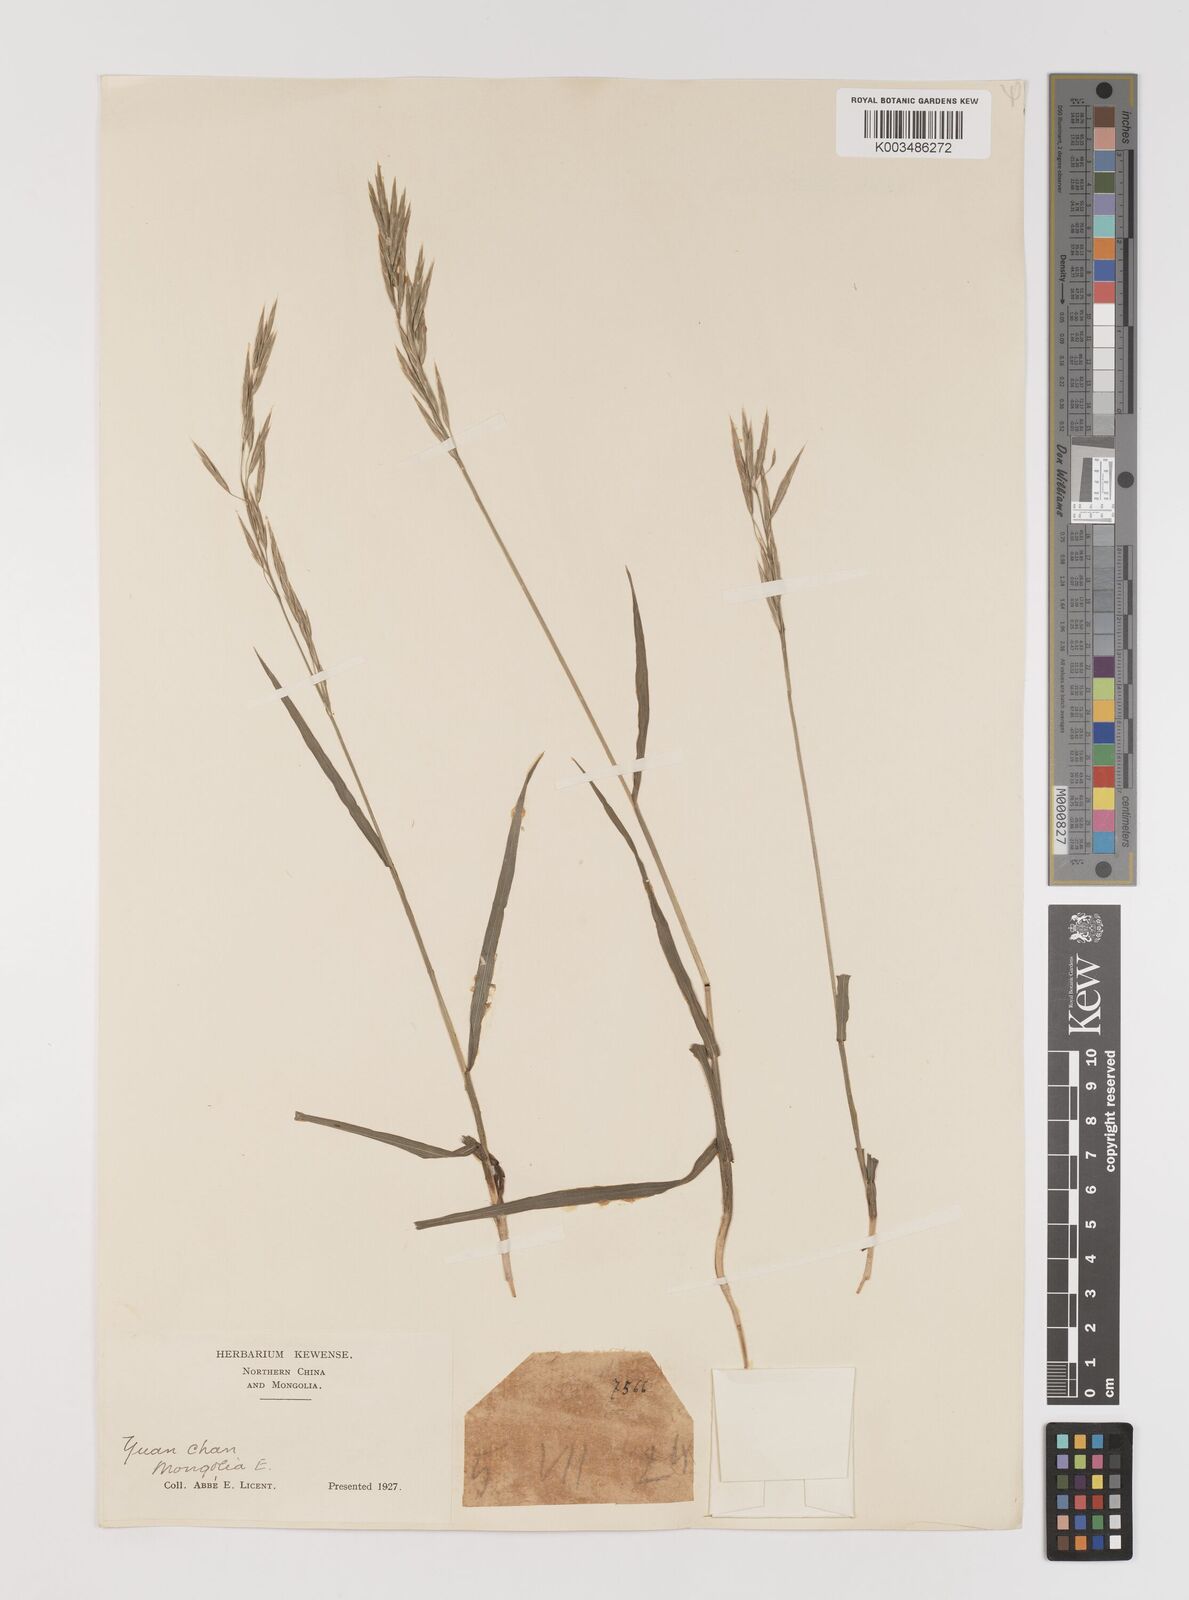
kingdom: Plantae
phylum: Tracheophyta
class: Liliopsida
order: Poales
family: Poaceae
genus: Bromus
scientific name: Bromus inermis
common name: Smooth brome
